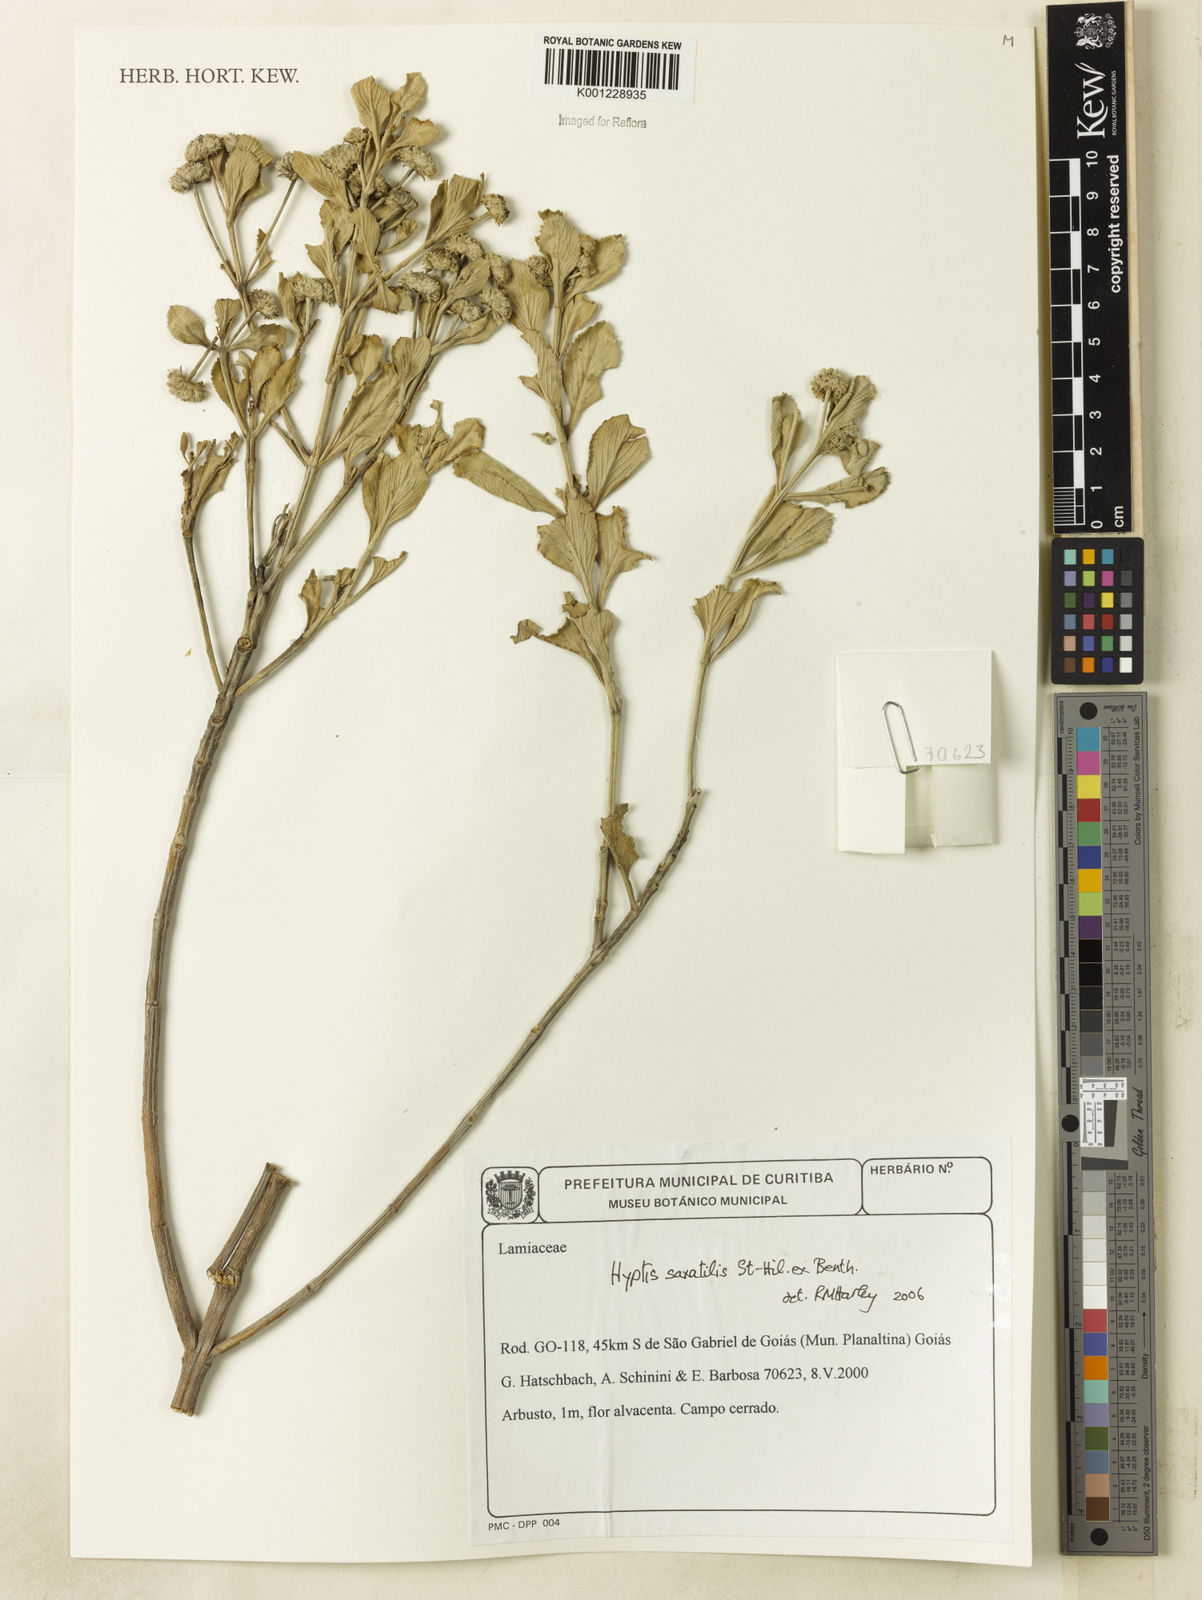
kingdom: Plantae
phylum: Tracheophyta
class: Magnoliopsida
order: Lamiales
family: Lamiaceae
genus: Hyptis
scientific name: Hyptis saxatilis
